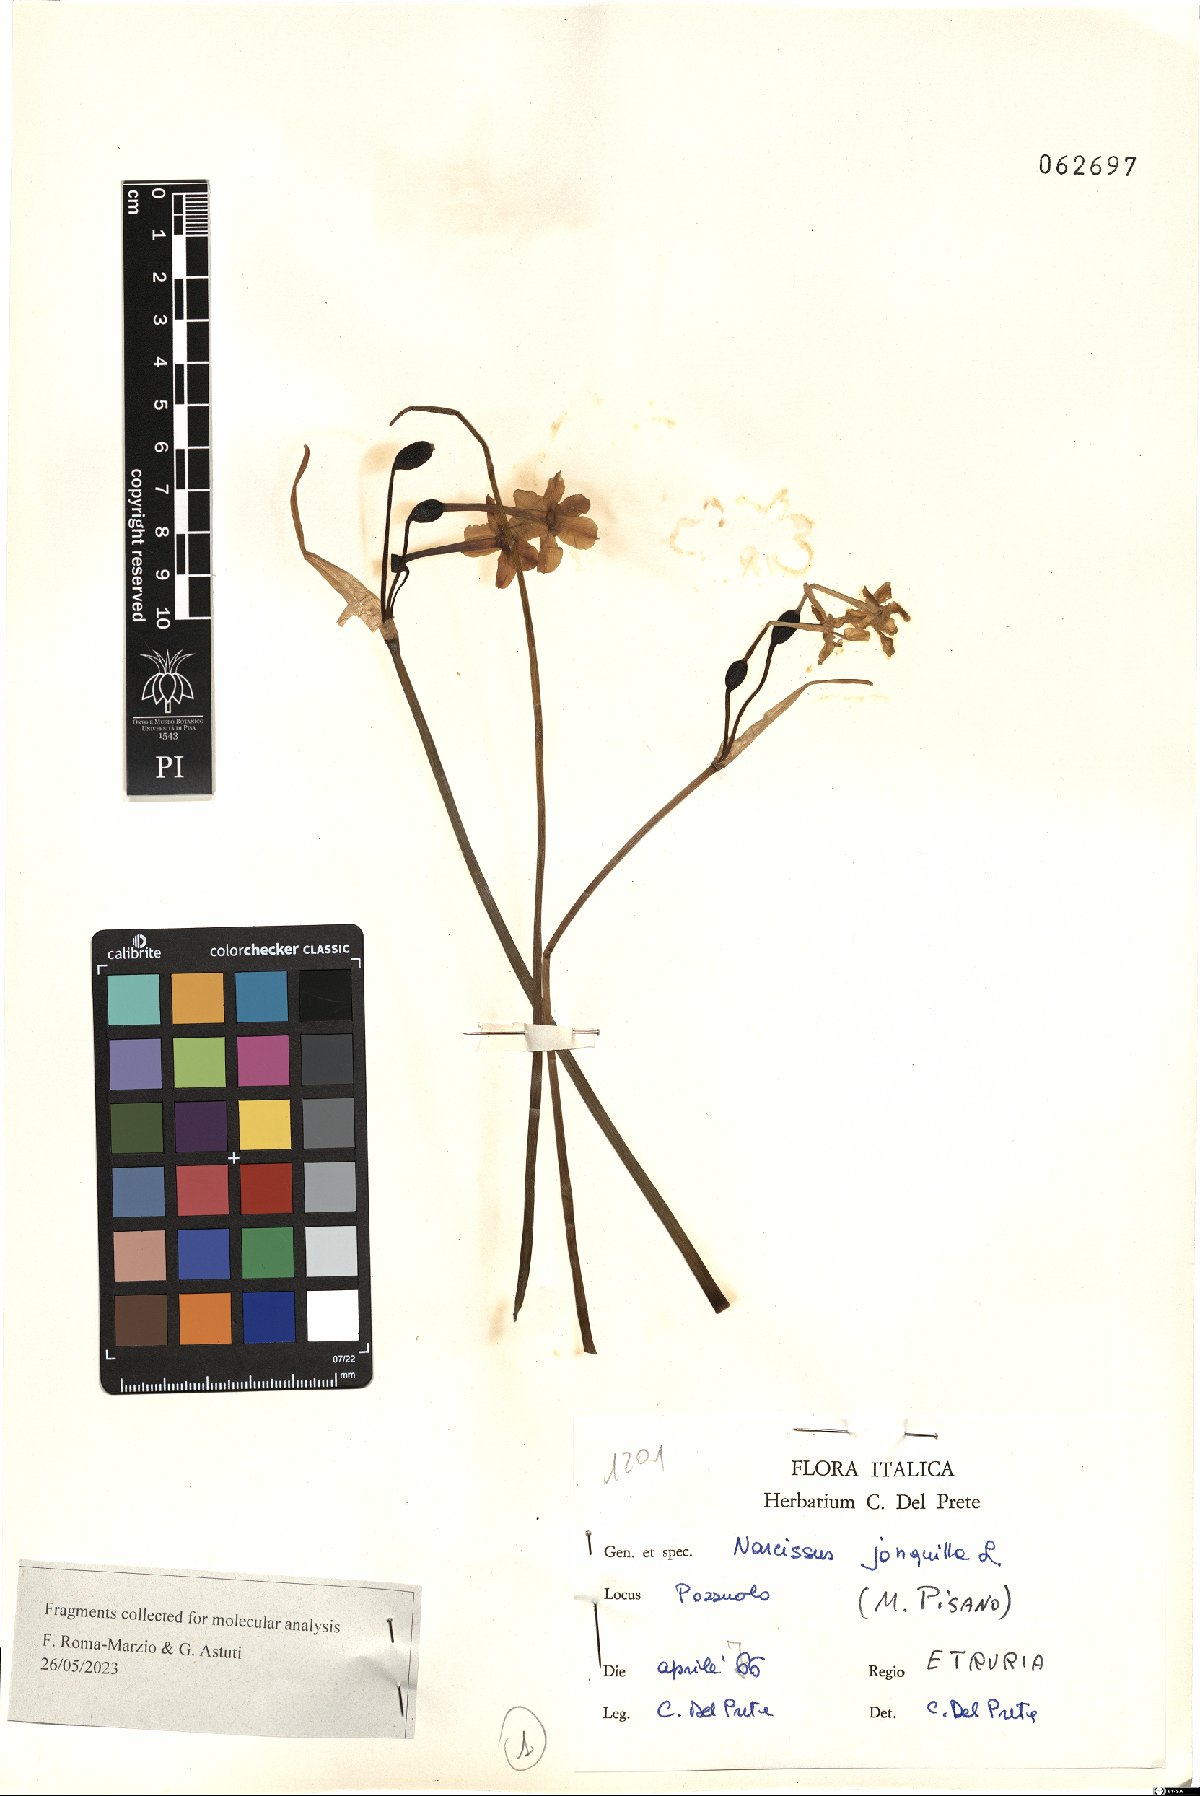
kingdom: Plantae
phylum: Tracheophyta
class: Liliopsida
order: Asparagales
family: Amaryllidaceae
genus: Narcissus
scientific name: Narcissus jonquilla
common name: Jonquil
